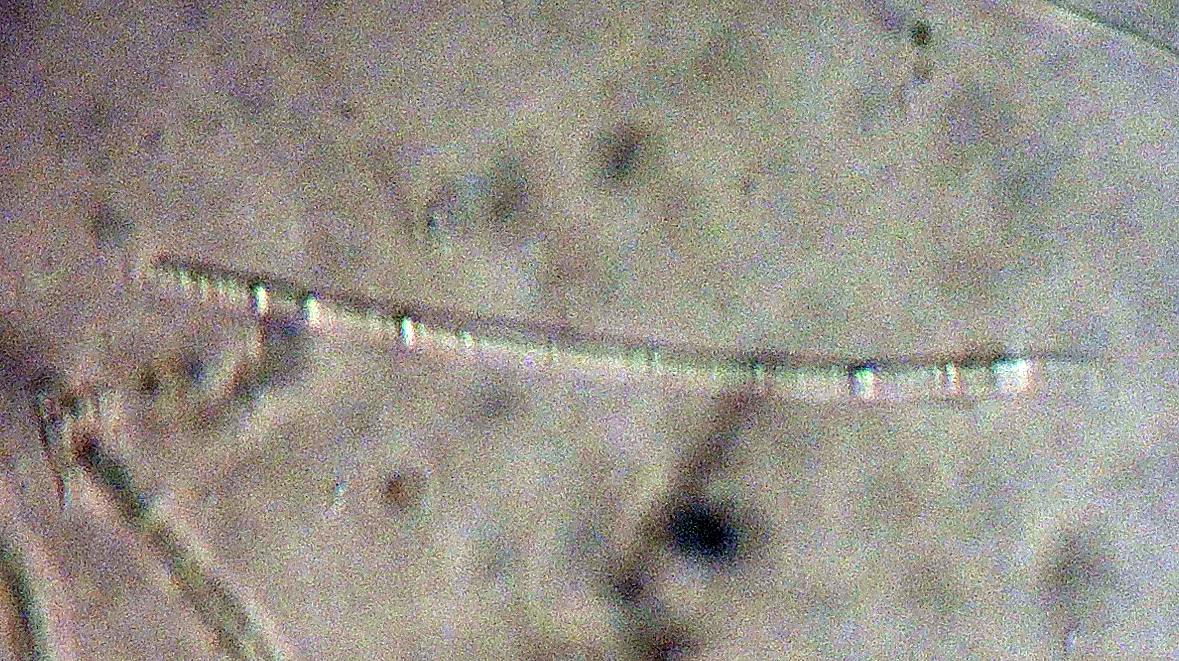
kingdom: Fungi
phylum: Ascomycota
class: Leotiomycetes
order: Rhytismatales
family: Rhytismataceae
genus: Lophodermium
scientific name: Lophodermium culmigenum
